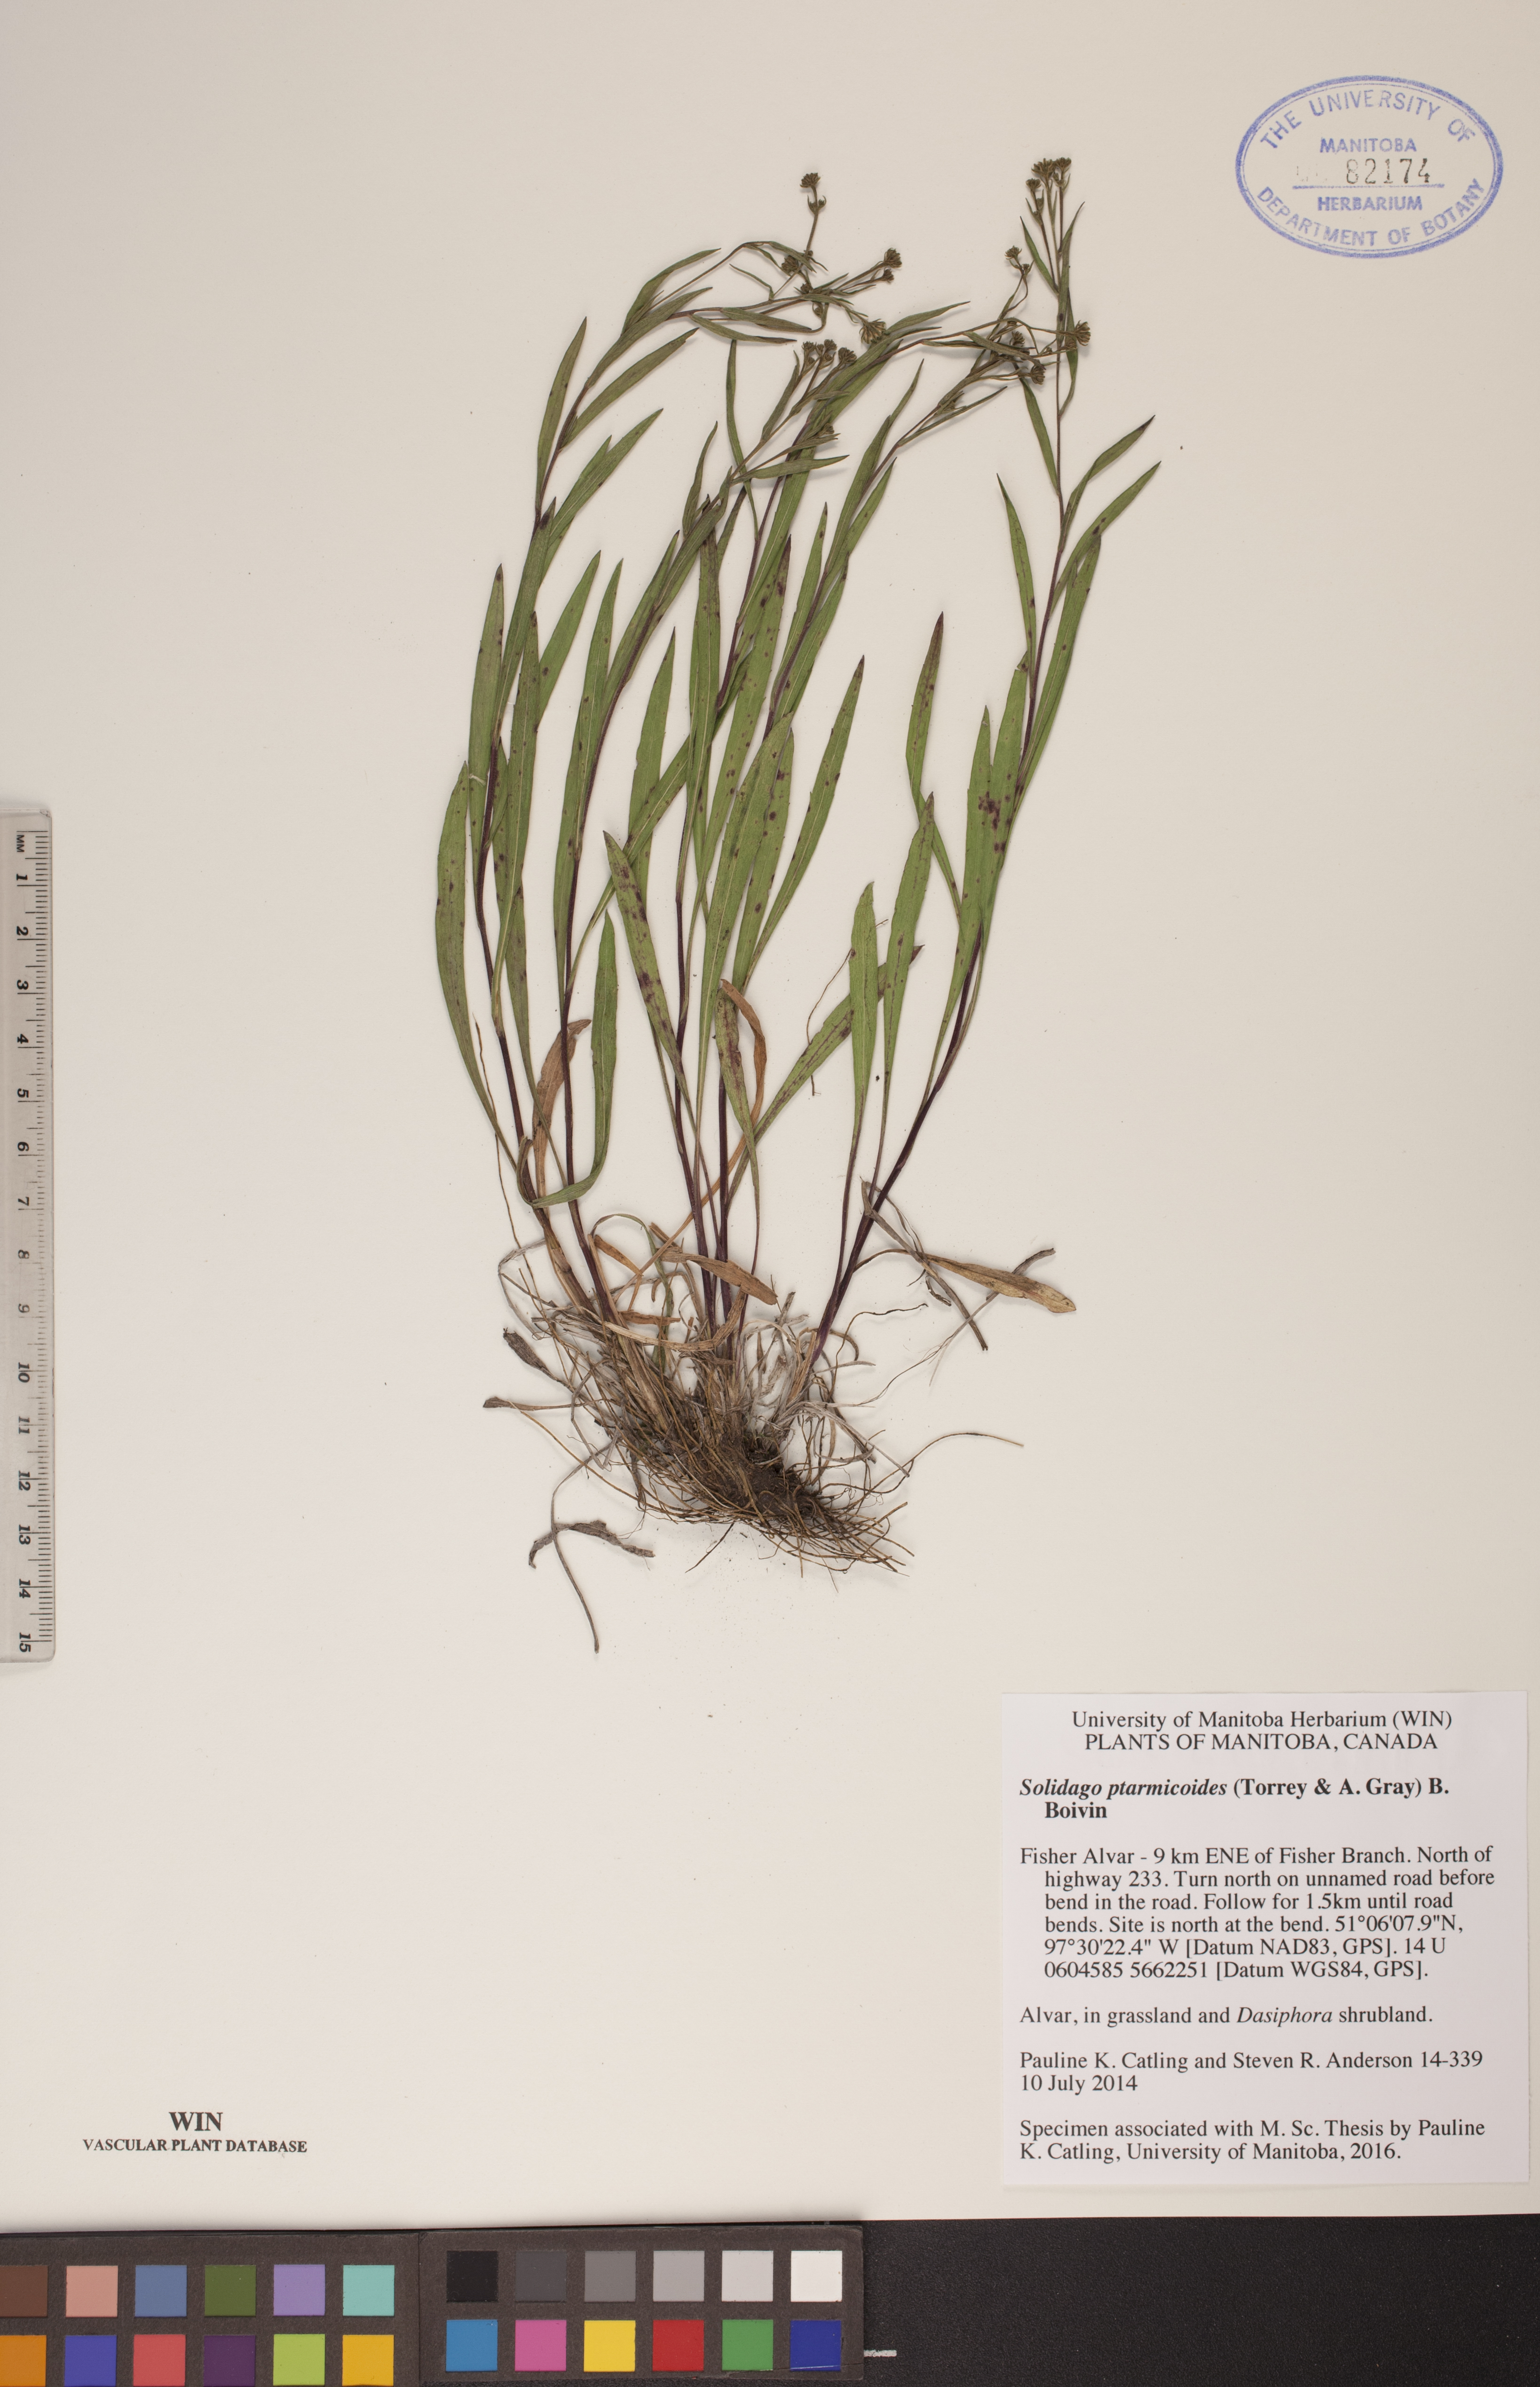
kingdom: Plantae
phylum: Tracheophyta
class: Magnoliopsida
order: Asterales
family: Asteraceae
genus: Solidago
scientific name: Solidago ptarmicoides
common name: White flat-top goldenrod
